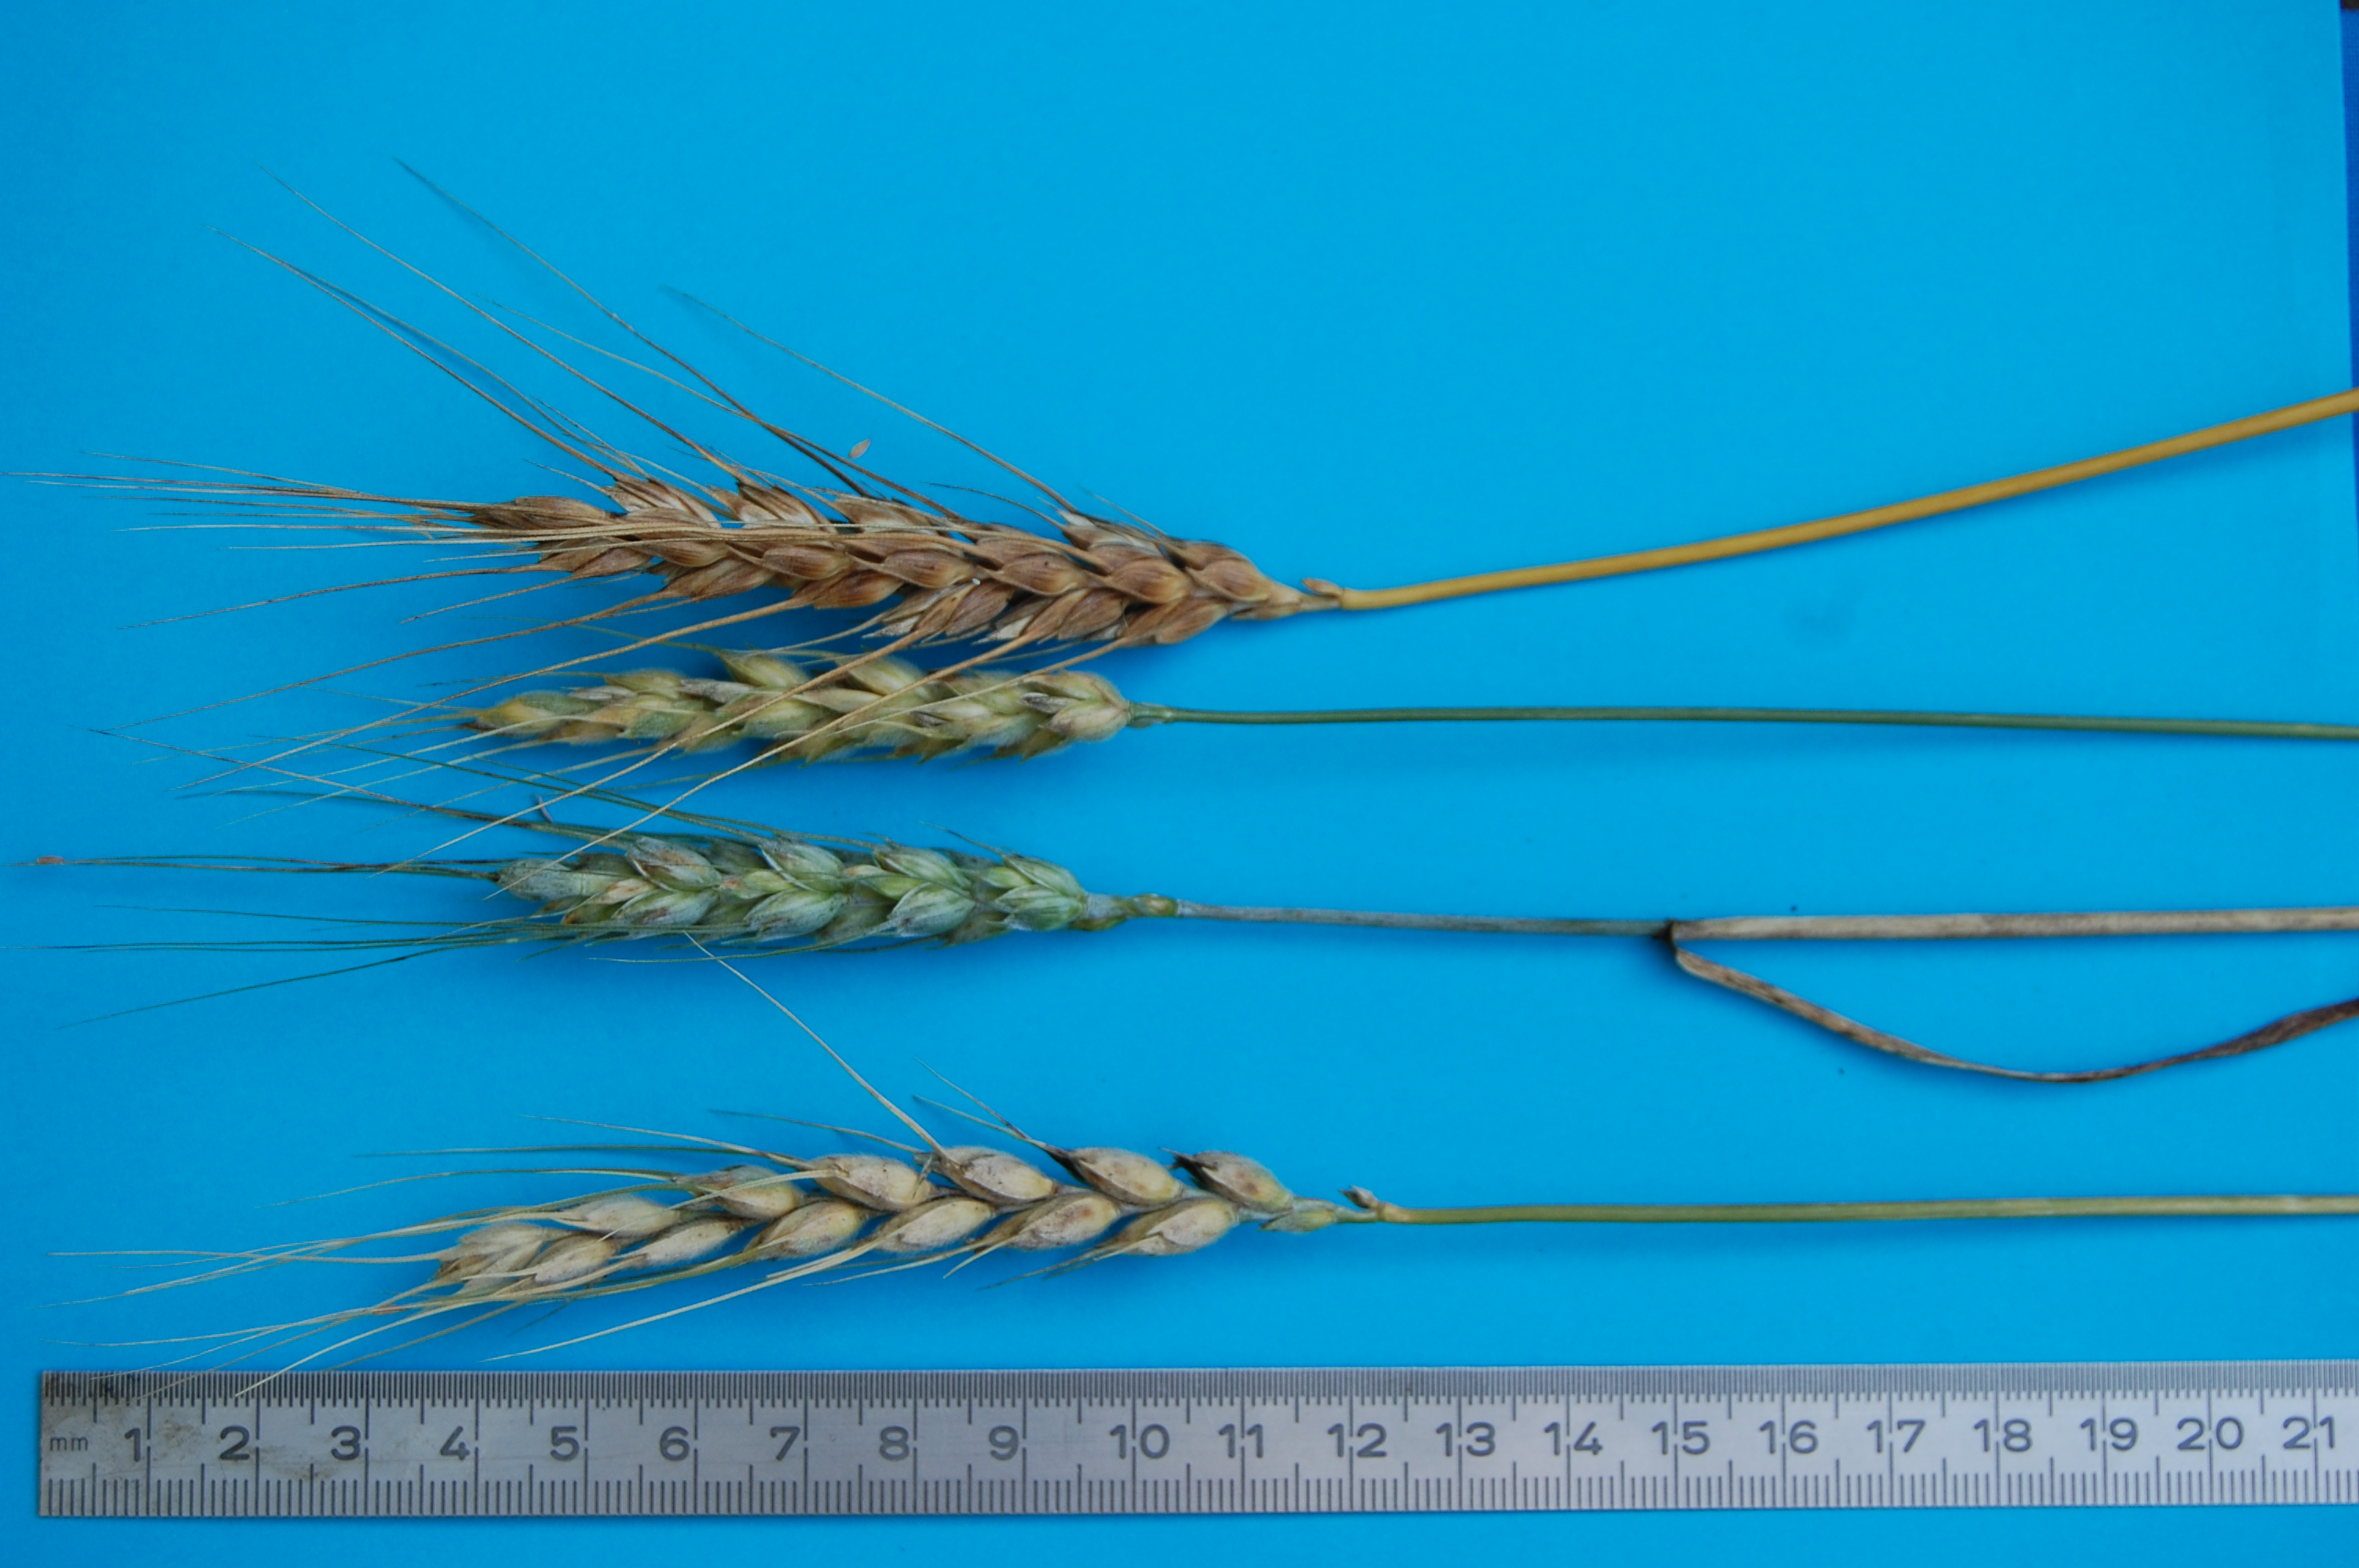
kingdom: Plantae
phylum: Tracheophyta
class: Liliopsida
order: Poales
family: Poaceae
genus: Triticum
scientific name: Triticum aestivum
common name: Common wheat
